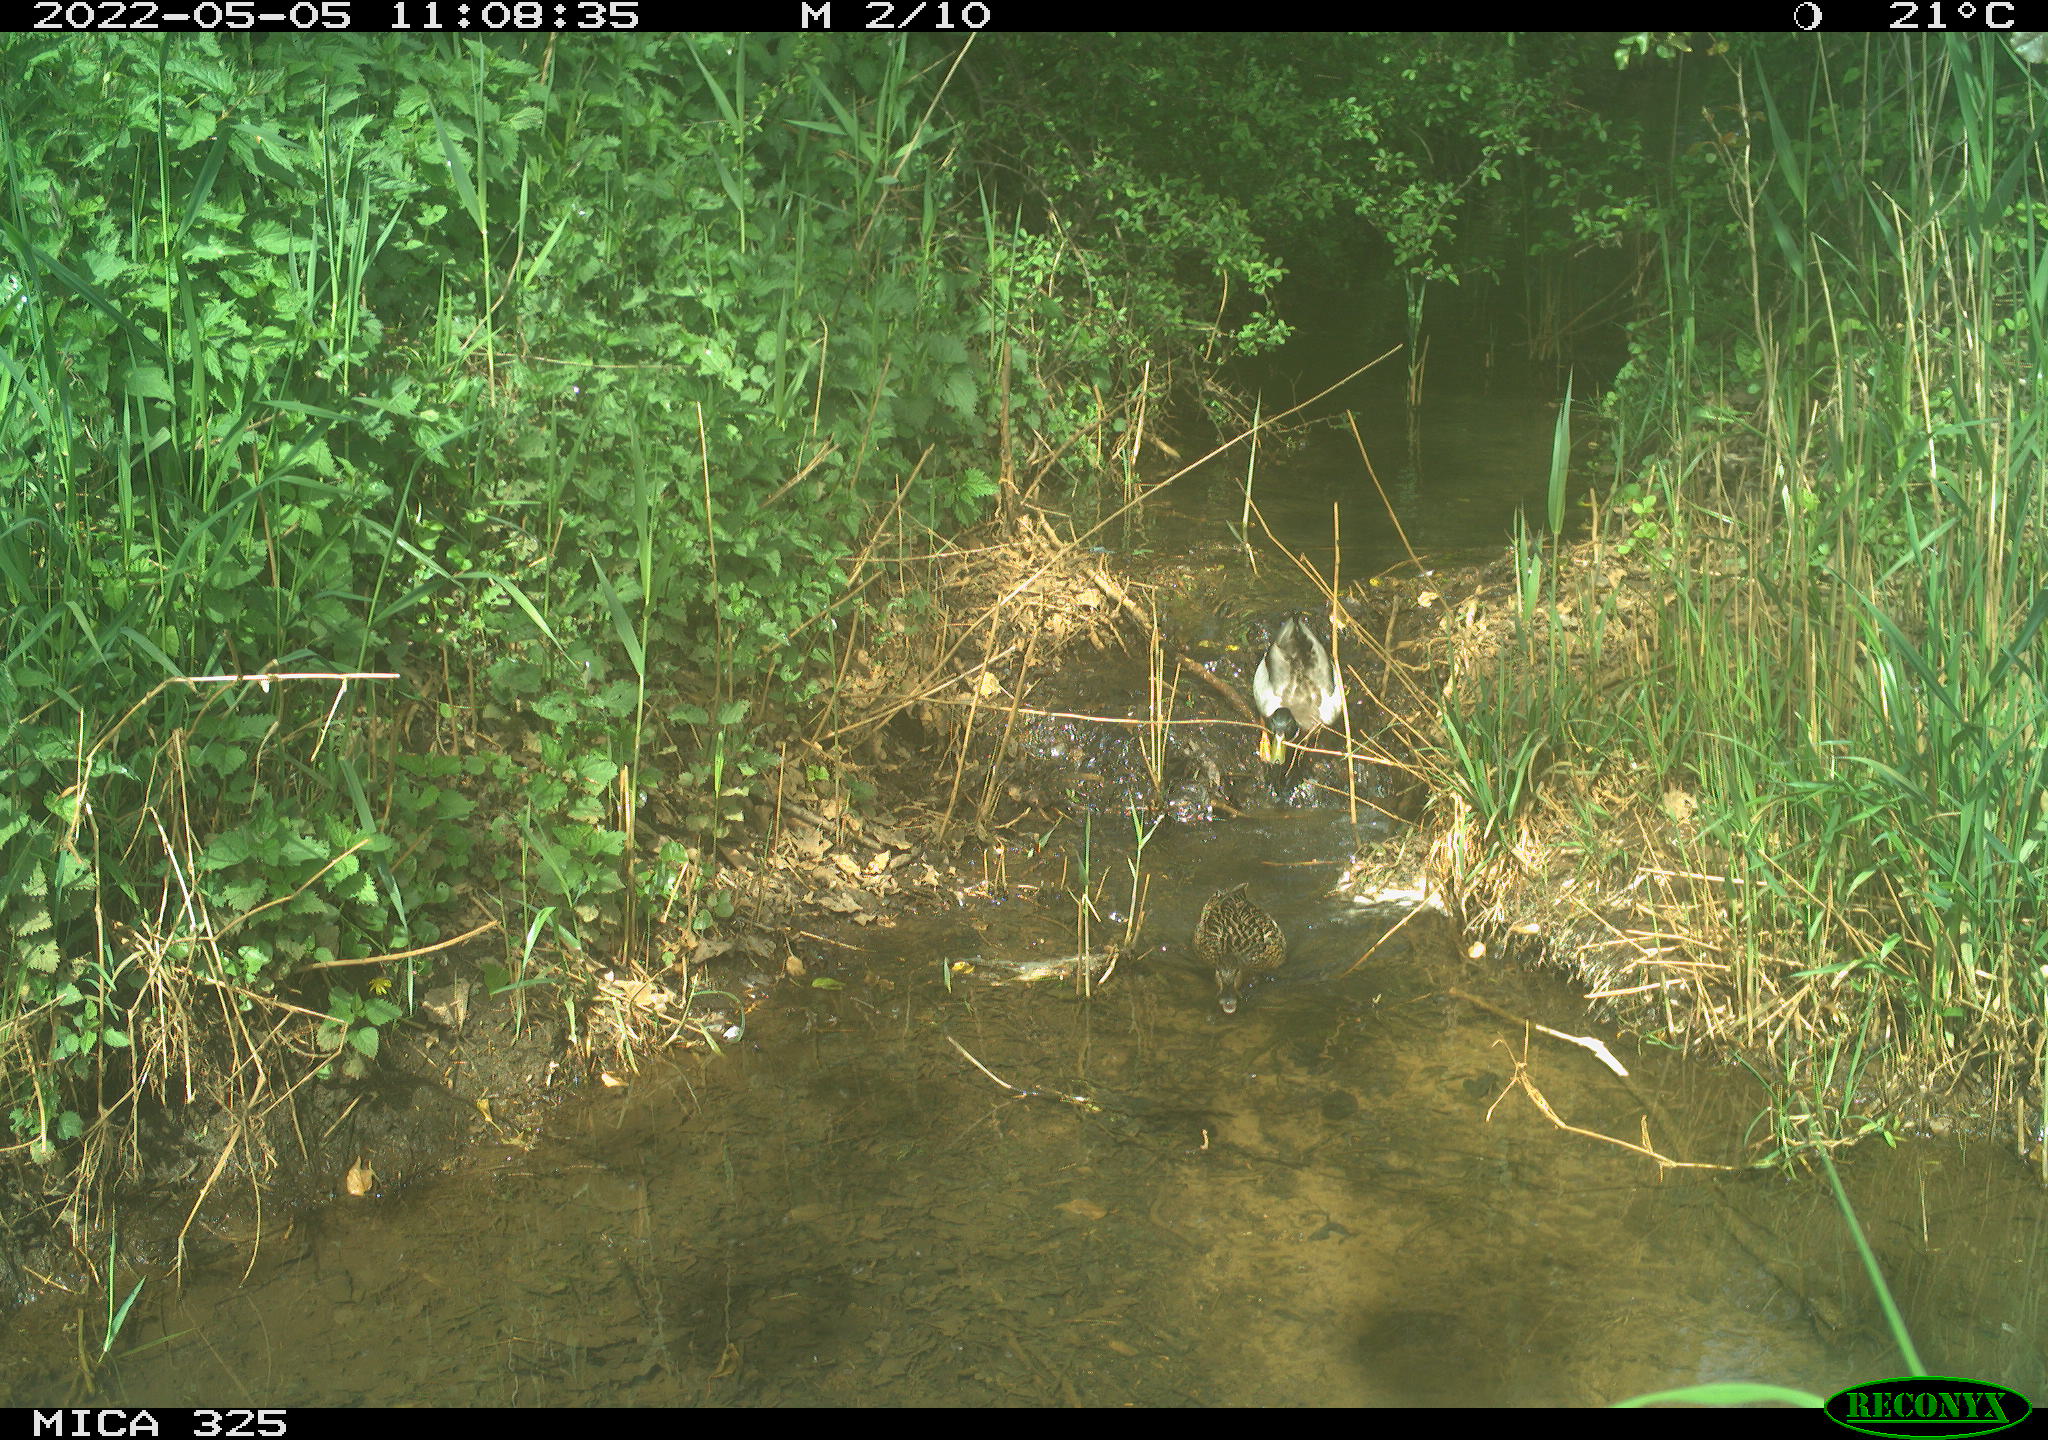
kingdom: Animalia
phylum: Chordata
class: Aves
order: Anseriformes
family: Anatidae
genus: Anas
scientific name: Anas platyrhynchos
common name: Mallard
